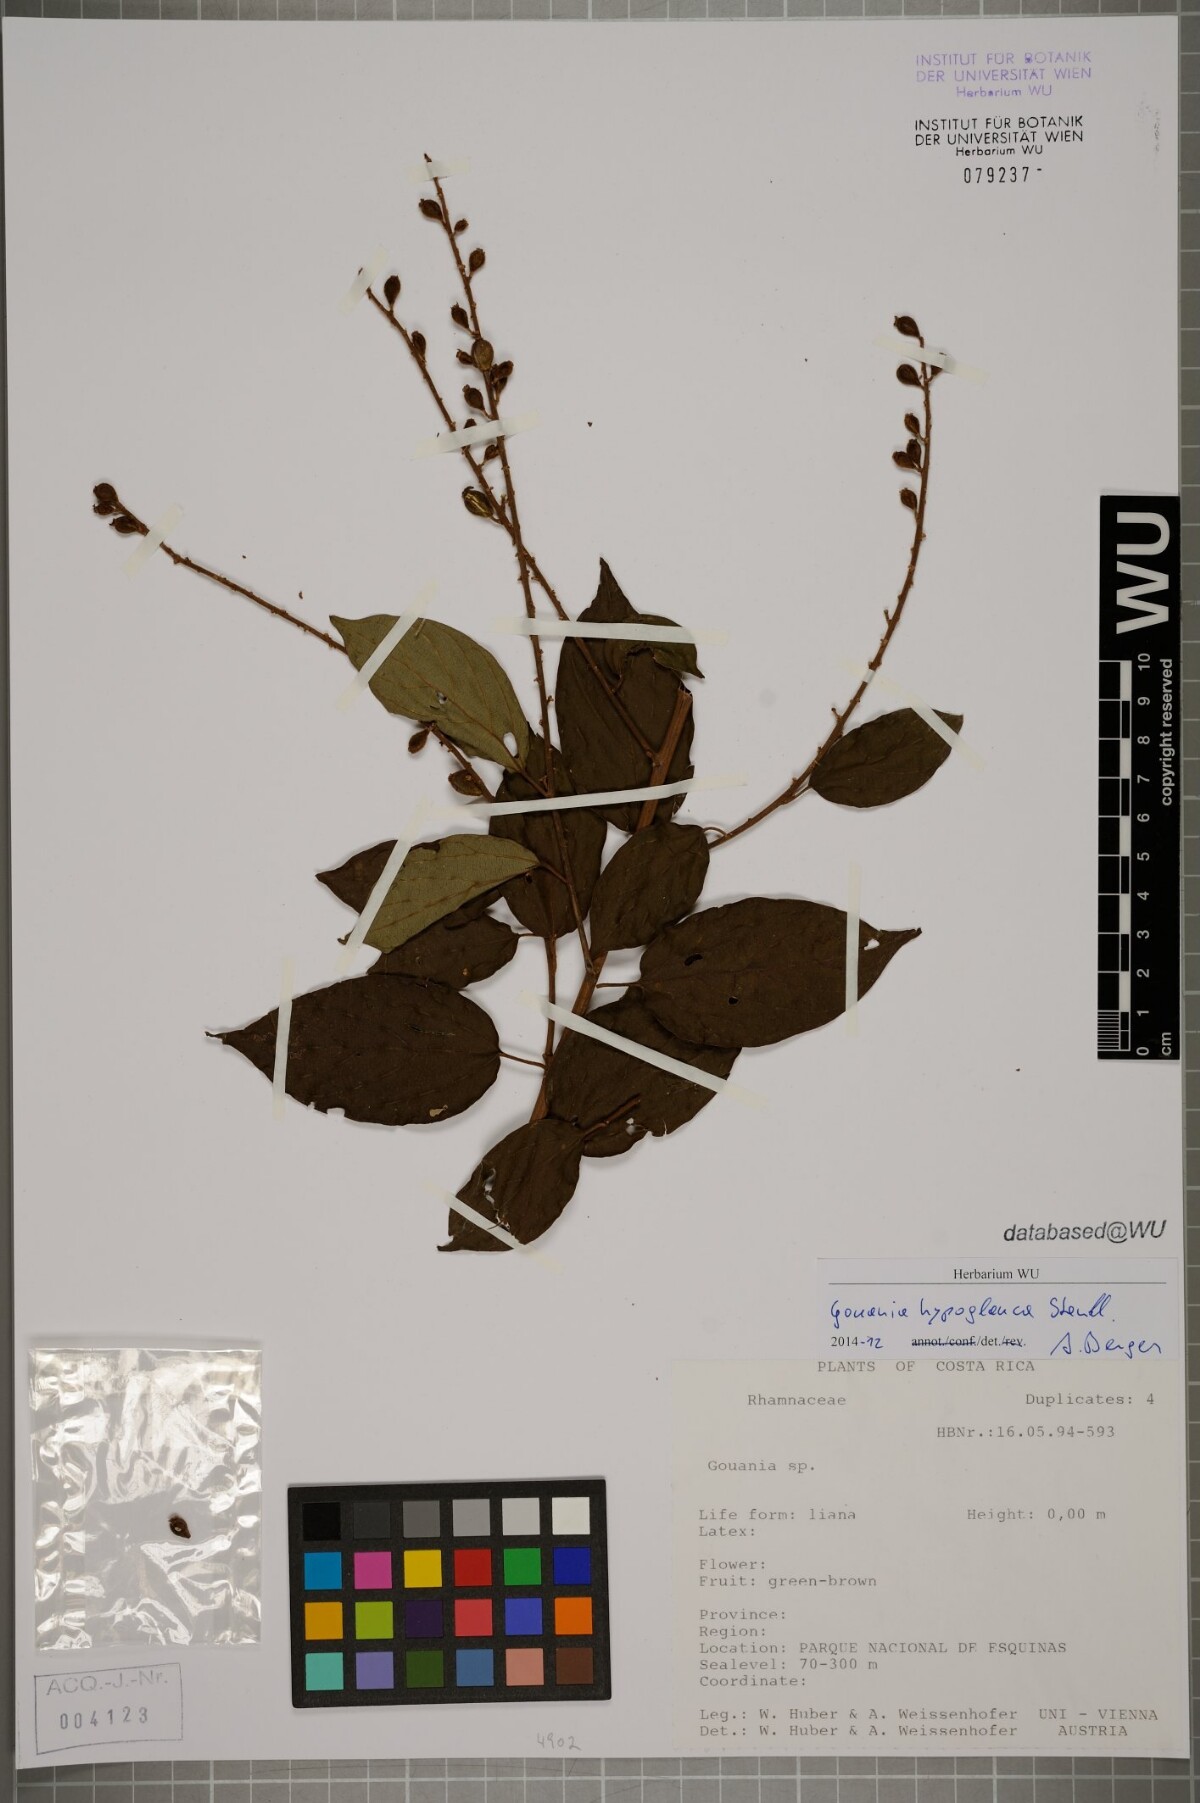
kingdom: Plantae
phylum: Tracheophyta
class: Magnoliopsida
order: Rosales
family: Rhamnaceae
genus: Gouania
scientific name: Gouania hypoglauca
